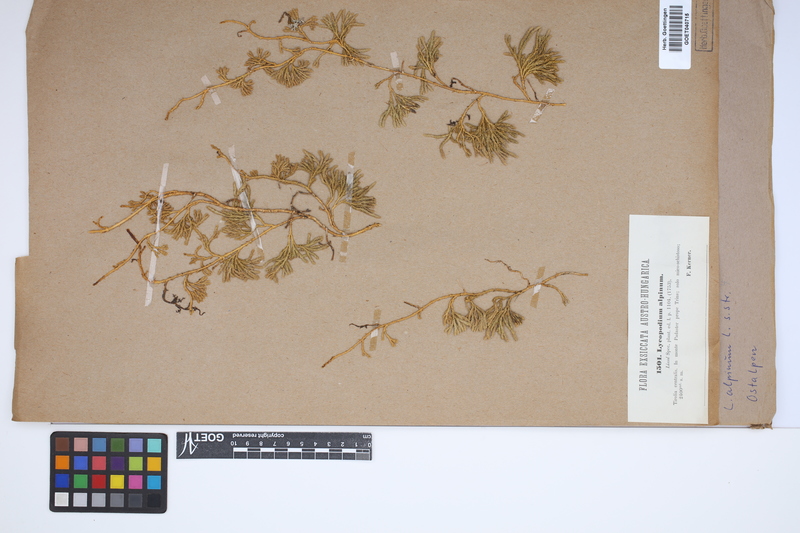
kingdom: Plantae
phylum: Tracheophyta
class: Lycopodiopsida
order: Lycopodiales
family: Lycopodiaceae
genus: Diphasiastrum
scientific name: Diphasiastrum alpinum
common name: Alpine clubmoss
